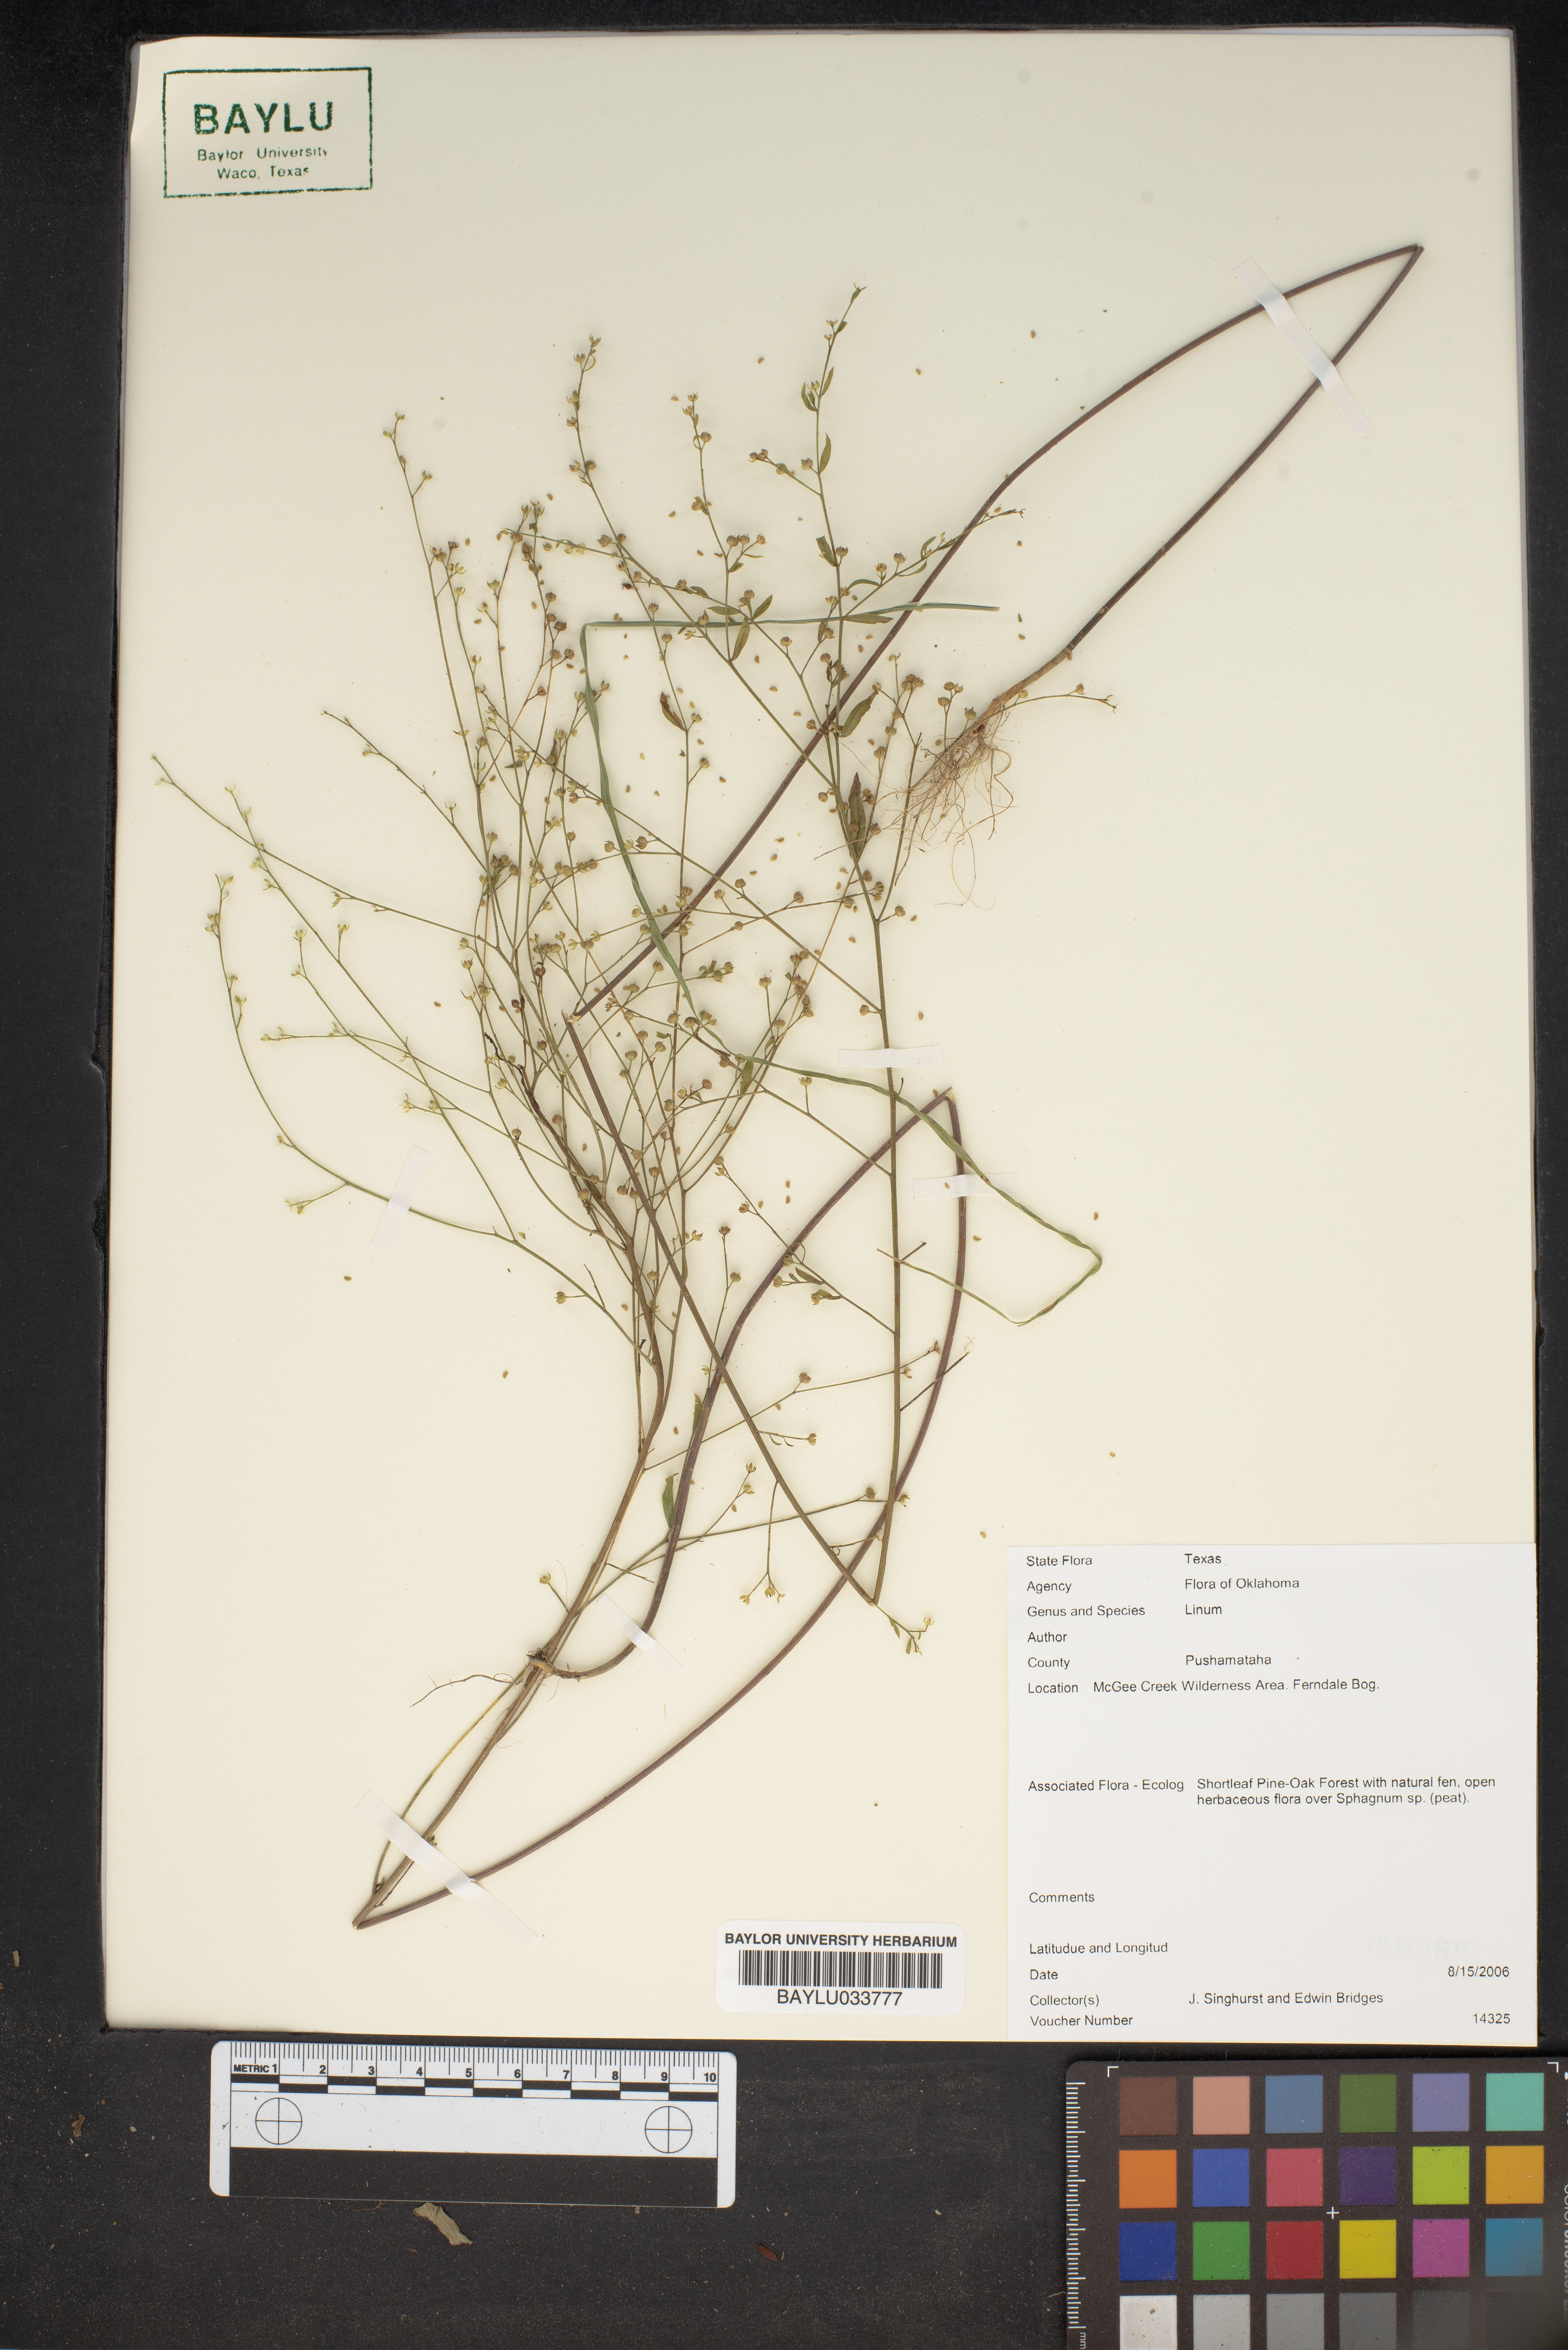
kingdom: Plantae
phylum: Tracheophyta
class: Magnoliopsida
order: Malpighiales
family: Linaceae
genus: Linum
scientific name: Linum
